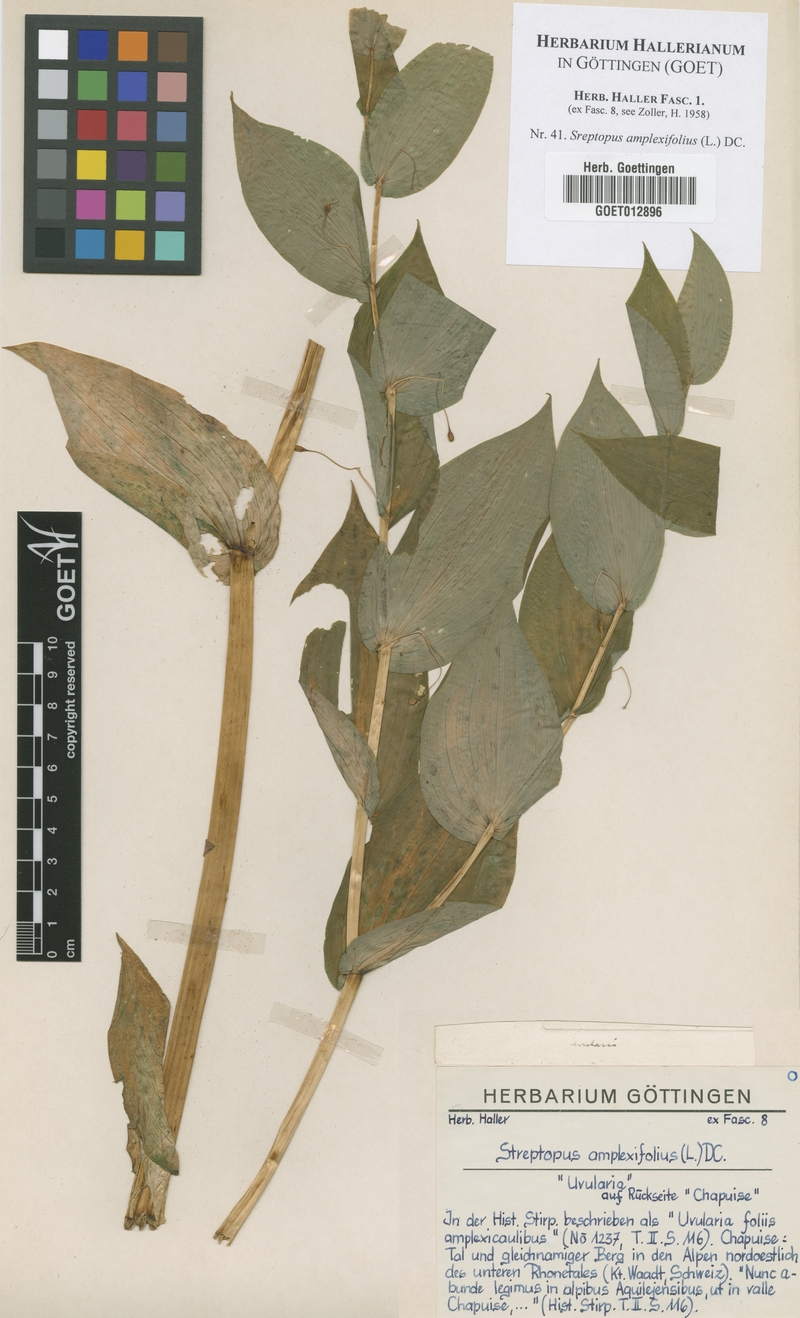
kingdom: Plantae
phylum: Tracheophyta
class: Liliopsida
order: Liliales
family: Liliaceae
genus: Streptopus
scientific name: Streptopus amplexifolius
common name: Clasp twisted stalk
